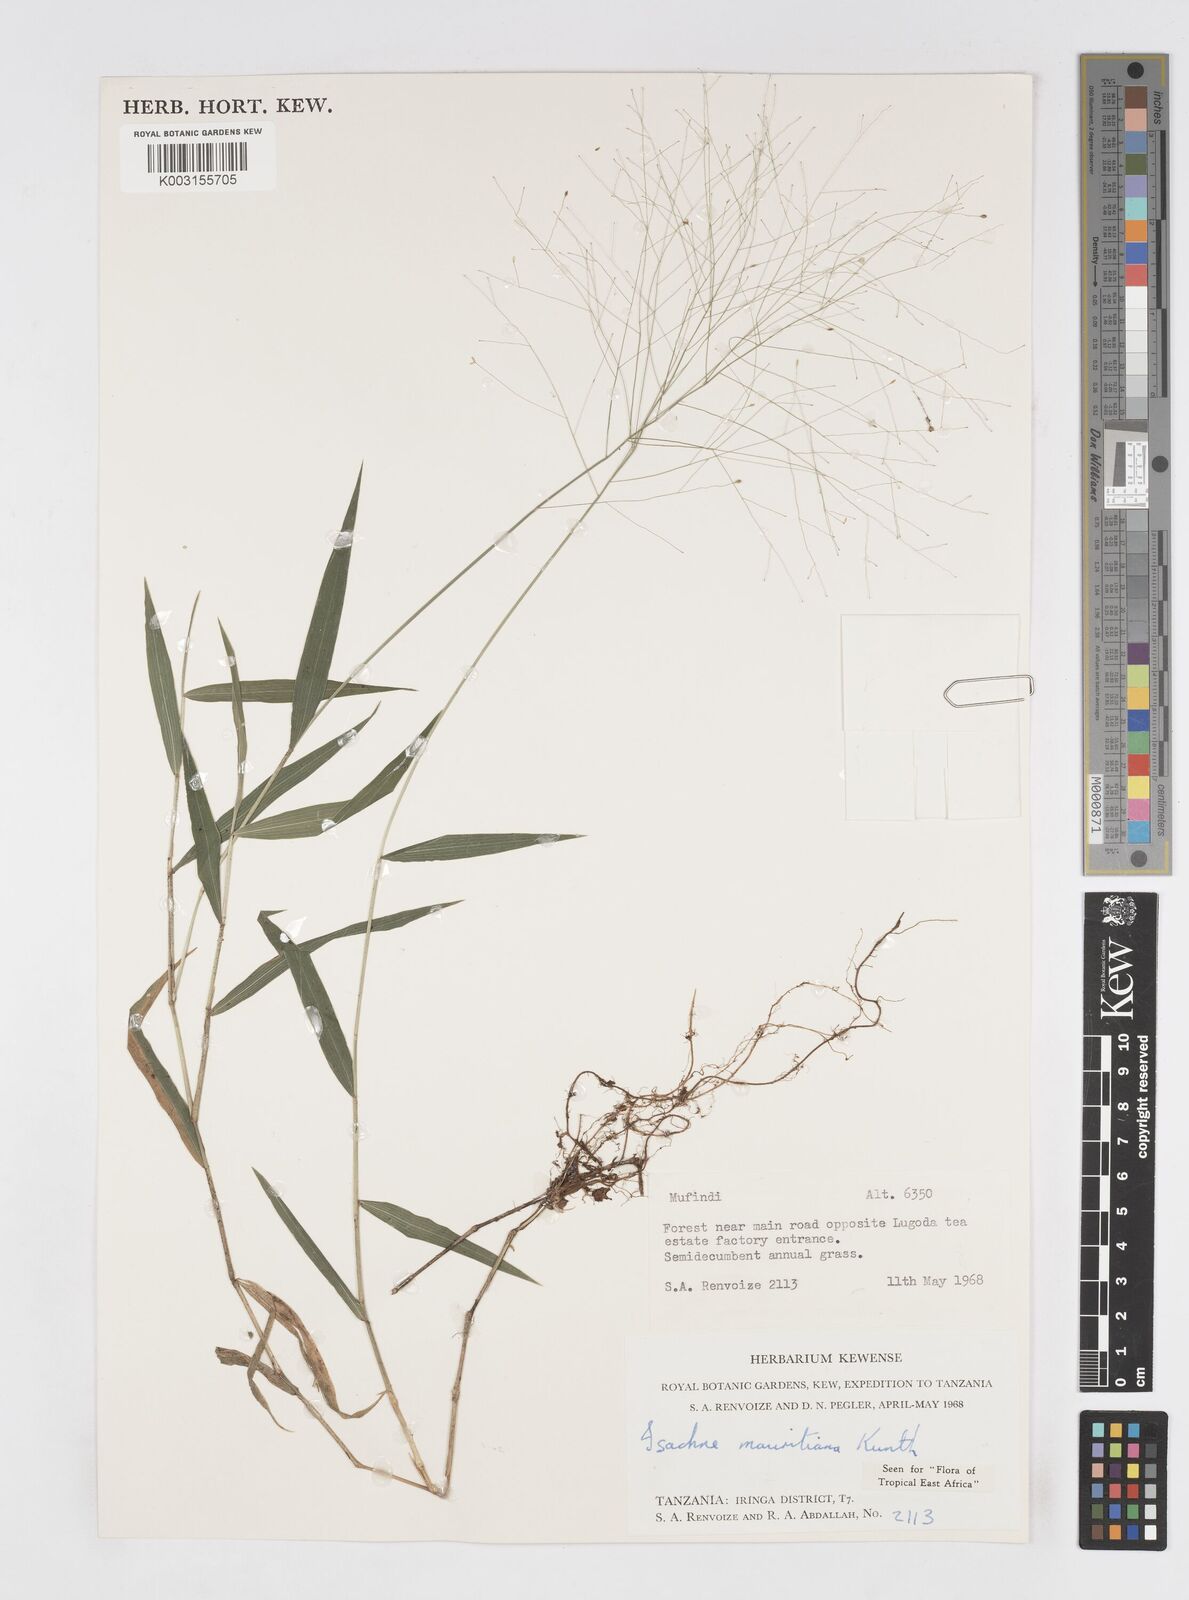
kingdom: Plantae
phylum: Tracheophyta
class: Liliopsida
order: Poales
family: Poaceae
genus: Isachne
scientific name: Isachne mauritiana
